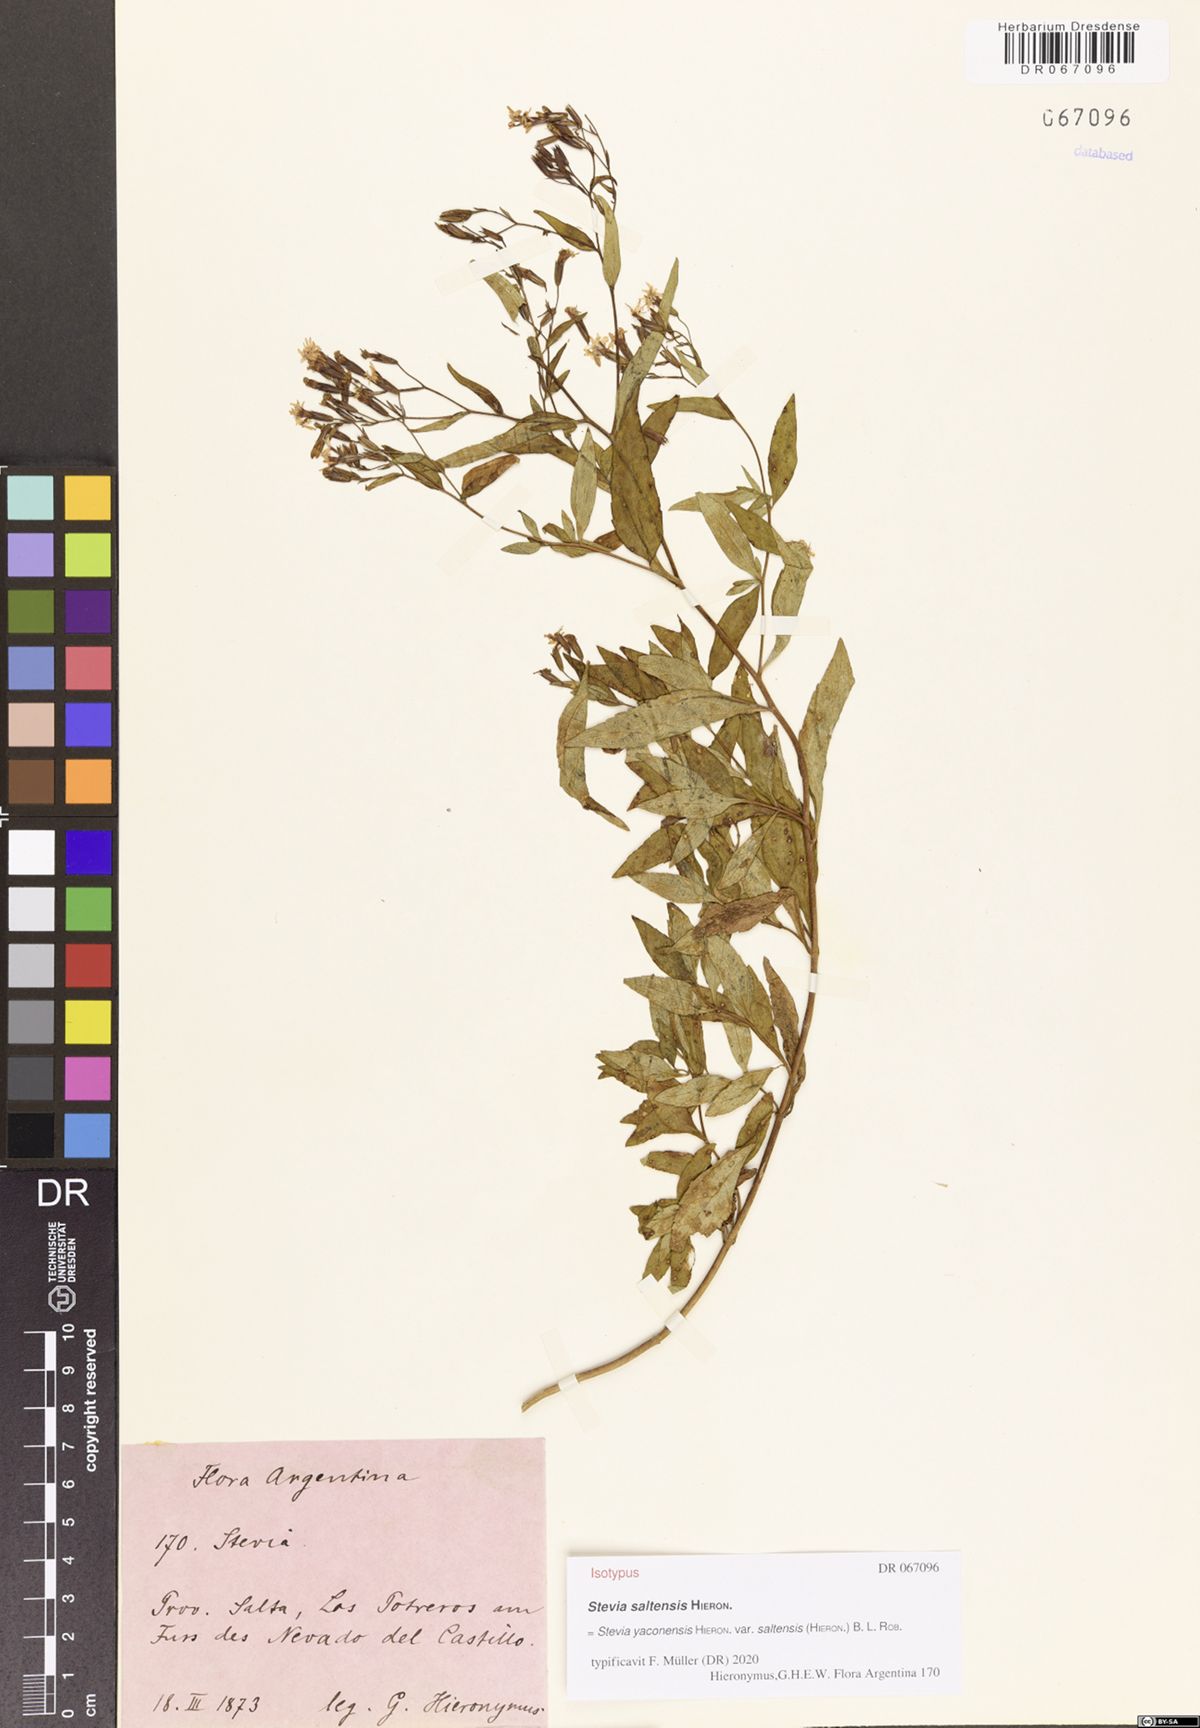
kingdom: Plantae
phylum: Tracheophyta
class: Magnoliopsida
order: Asterales
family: Asteraceae
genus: Stevia
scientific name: Stevia yaconensis
